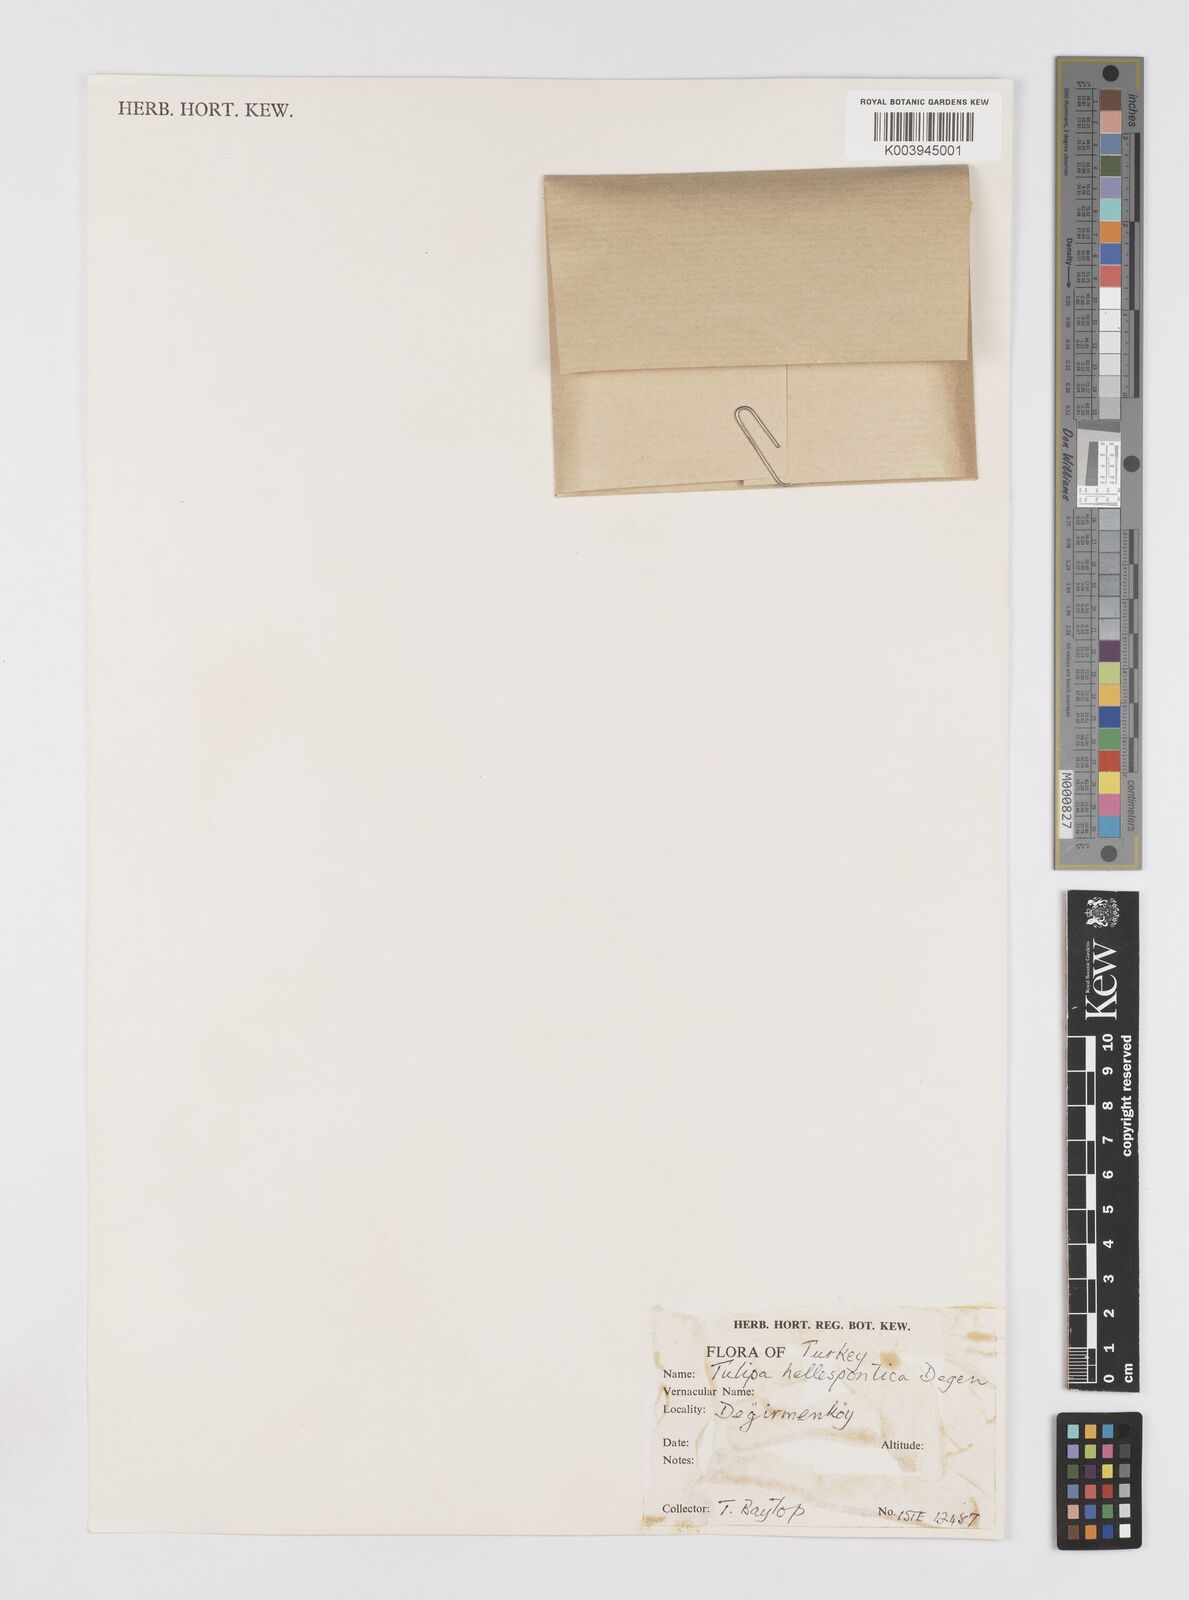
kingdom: Plantae
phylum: Tracheophyta
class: Liliopsida
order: Liliales
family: Liliaceae
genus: Tulipa
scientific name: Tulipa orphanidea
